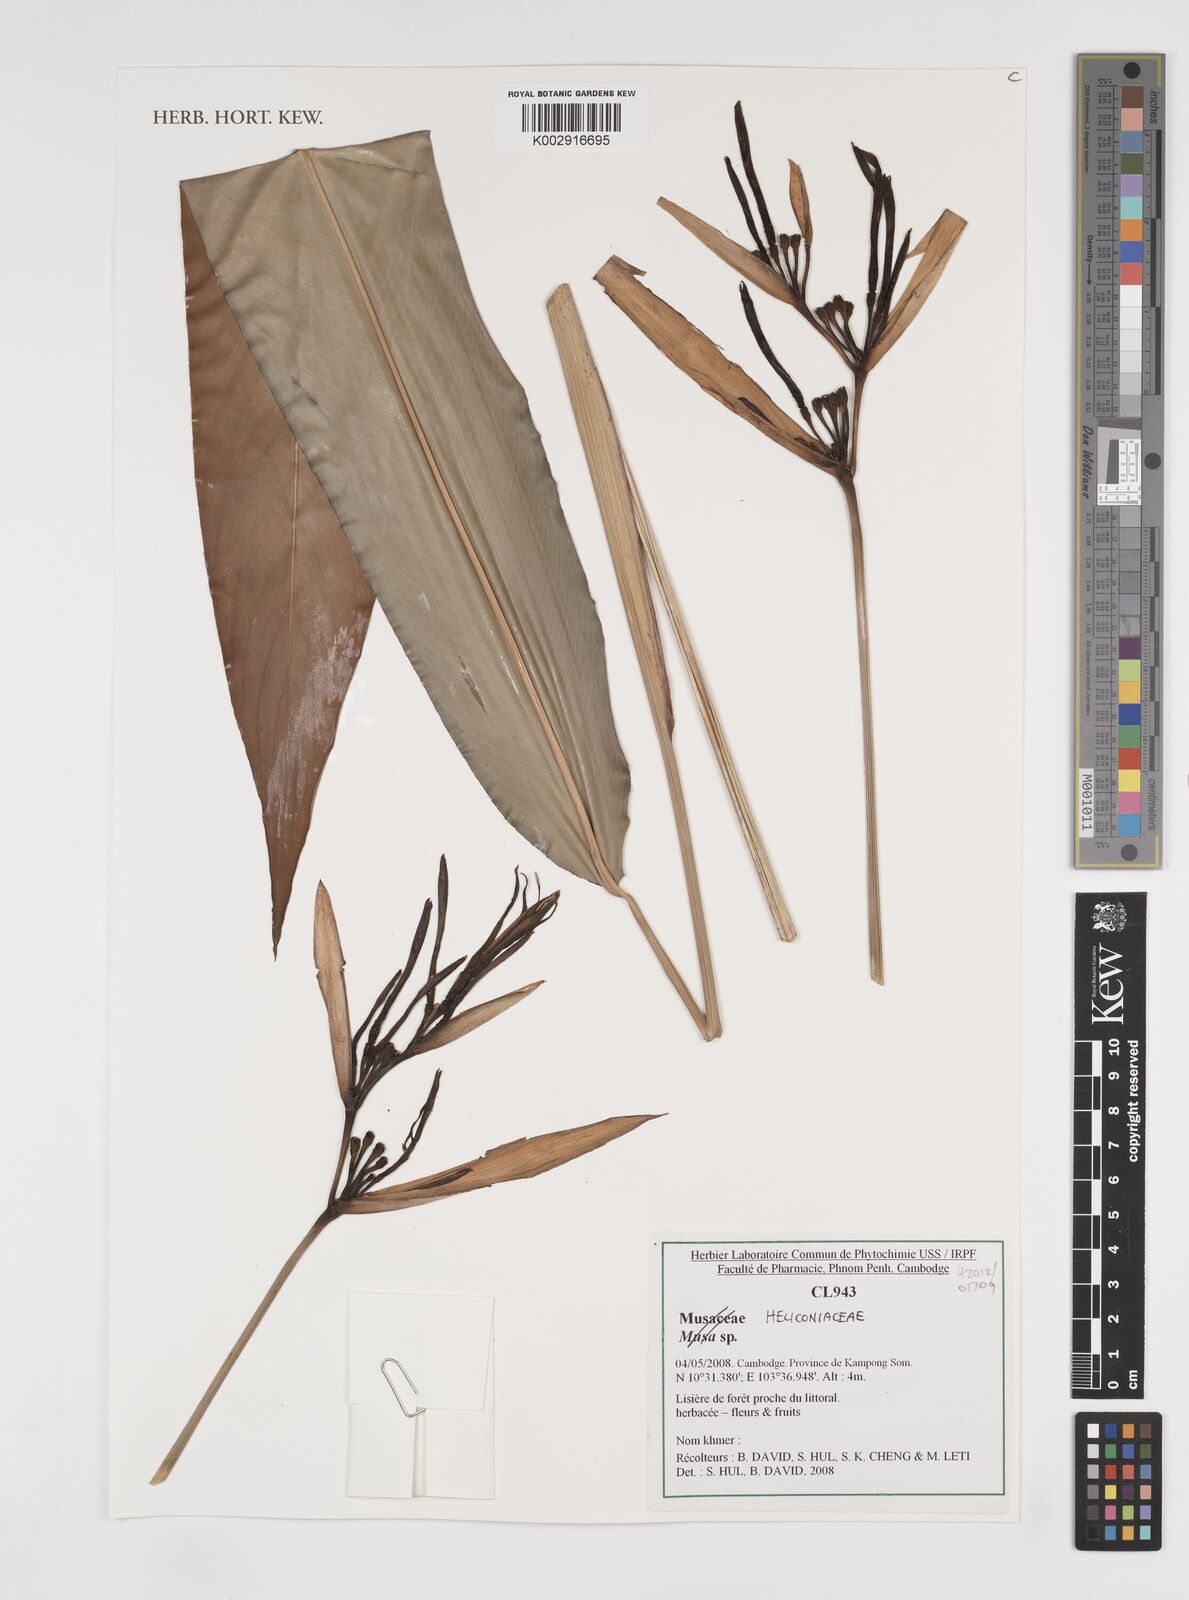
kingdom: Plantae
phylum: Tracheophyta
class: Liliopsida
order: Zingiberales
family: Heliconiaceae
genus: Heliconia
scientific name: Heliconia
